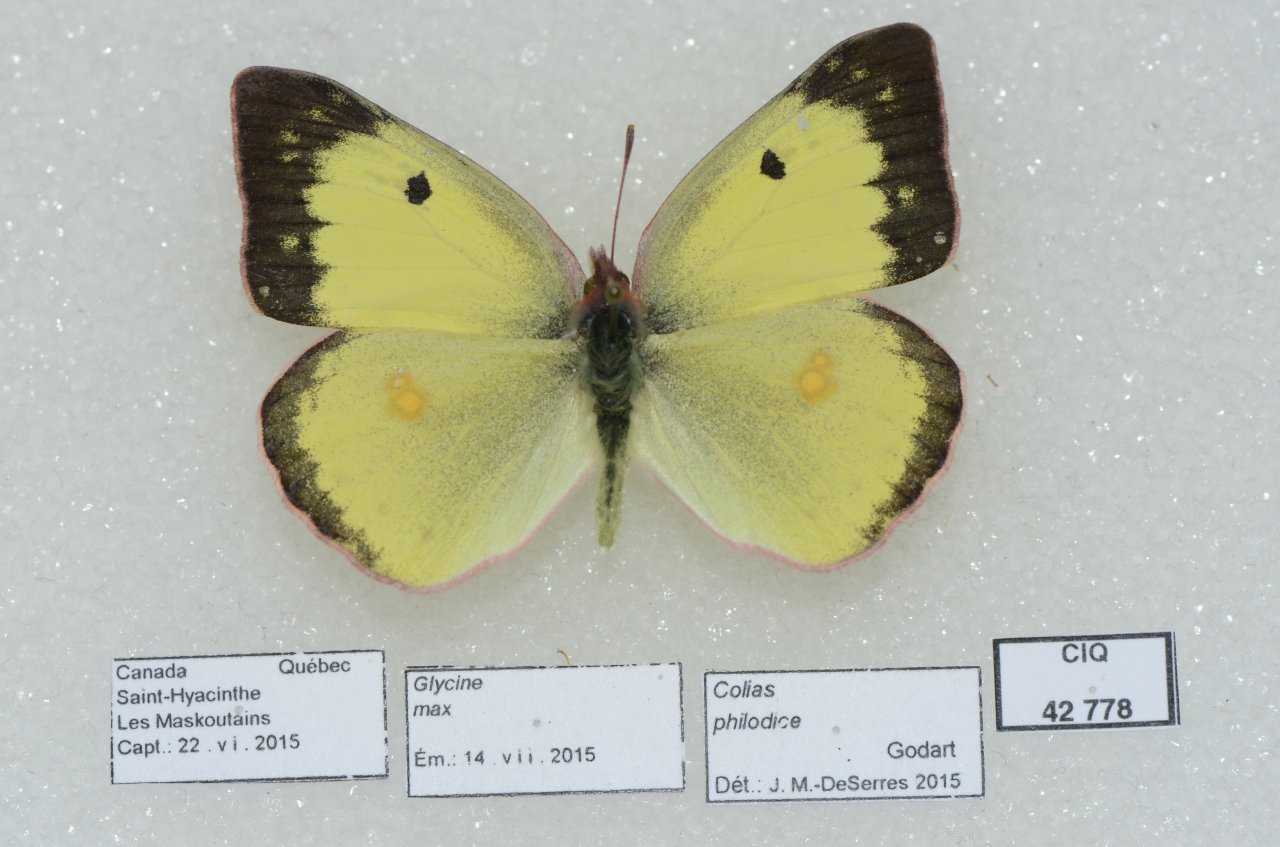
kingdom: Animalia
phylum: Arthropoda
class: Insecta
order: Lepidoptera
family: Pieridae
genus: Colias
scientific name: Colias philodice
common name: Clouded Sulphur
